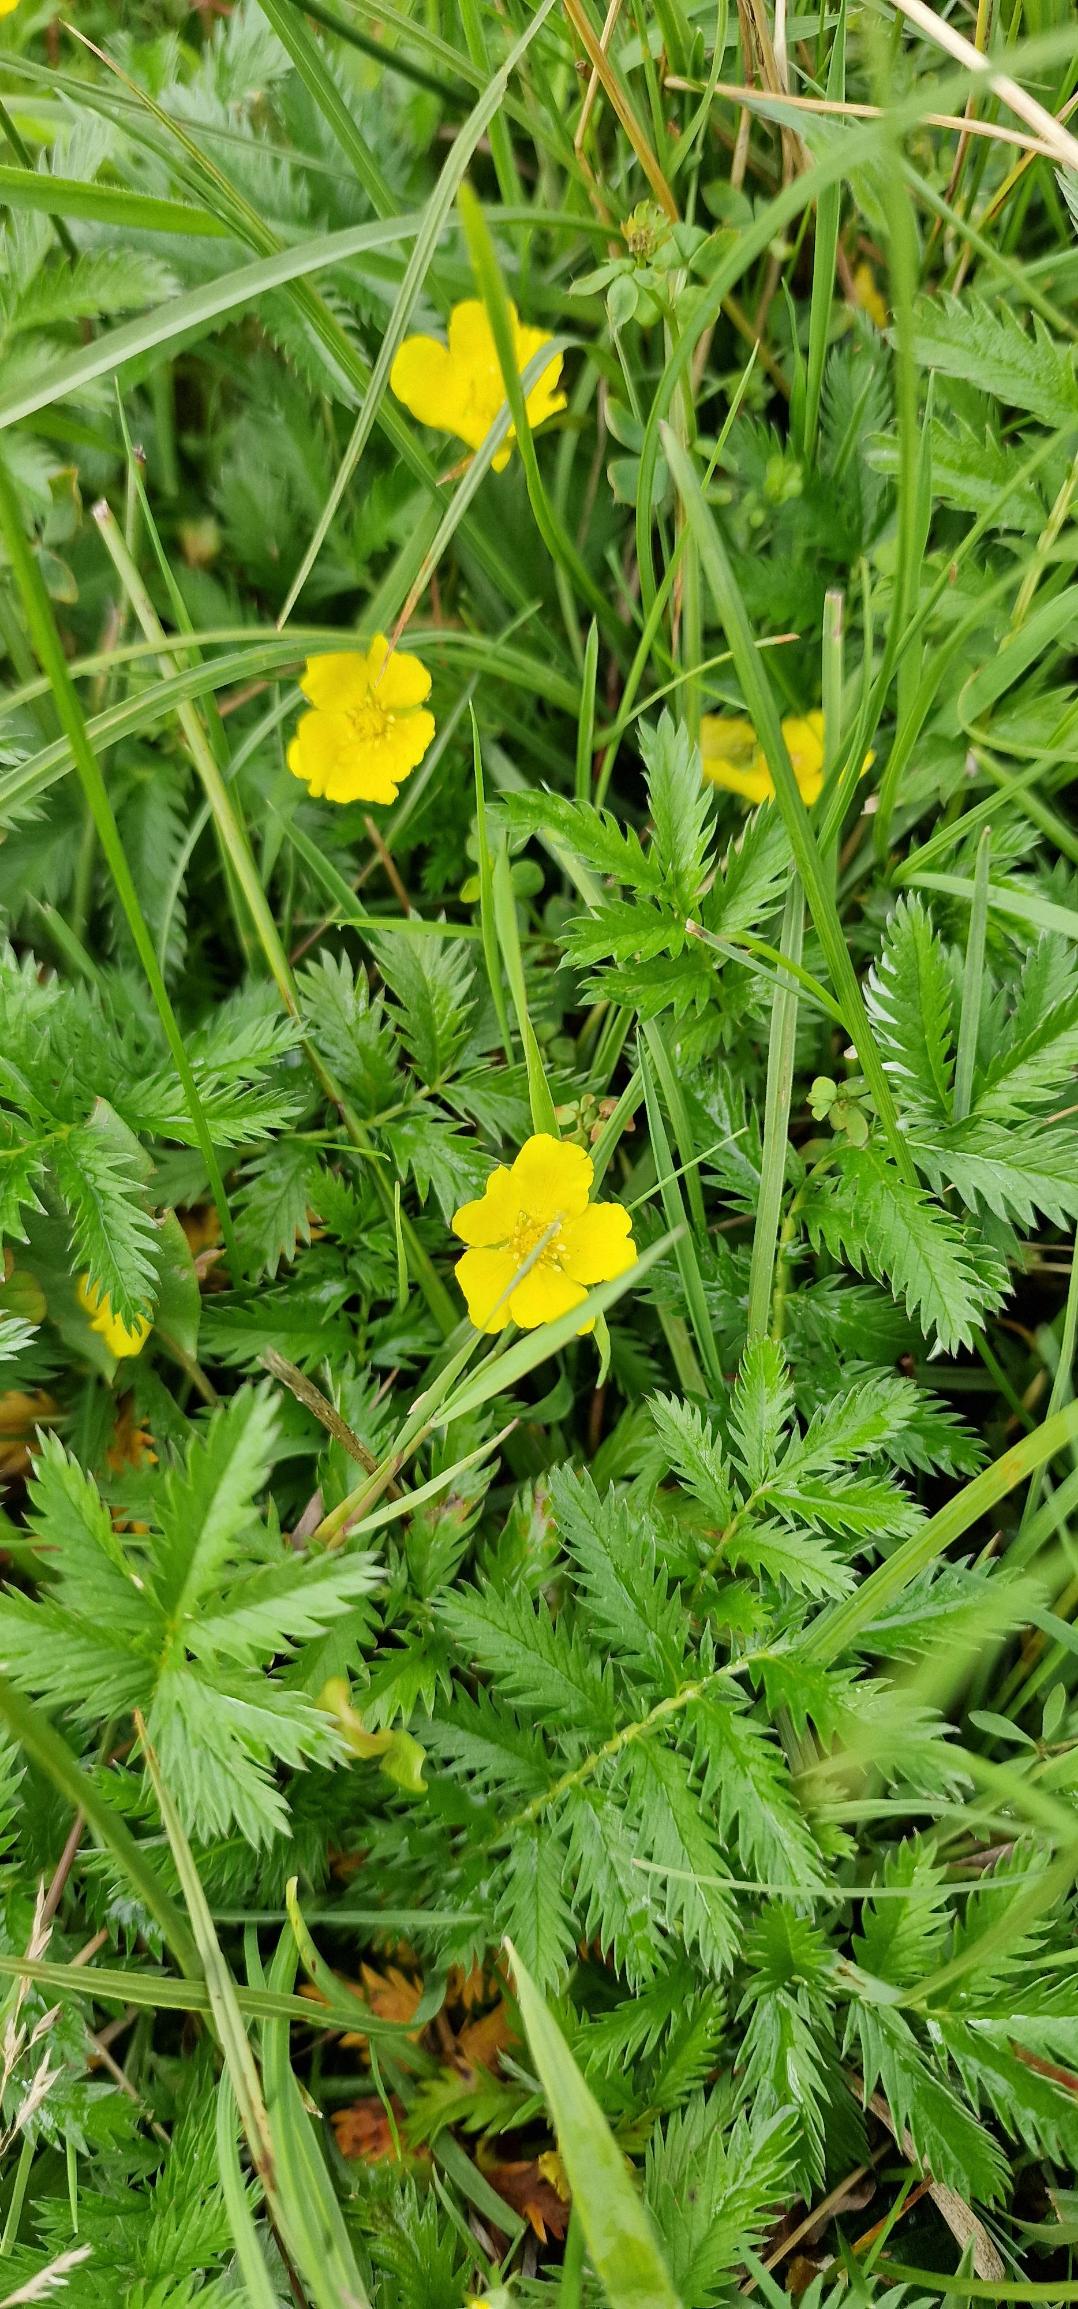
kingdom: Plantae
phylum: Tracheophyta
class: Magnoliopsida
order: Rosales
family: Rosaceae
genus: Argentina
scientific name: Argentina anserina
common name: Gåsepotentil
